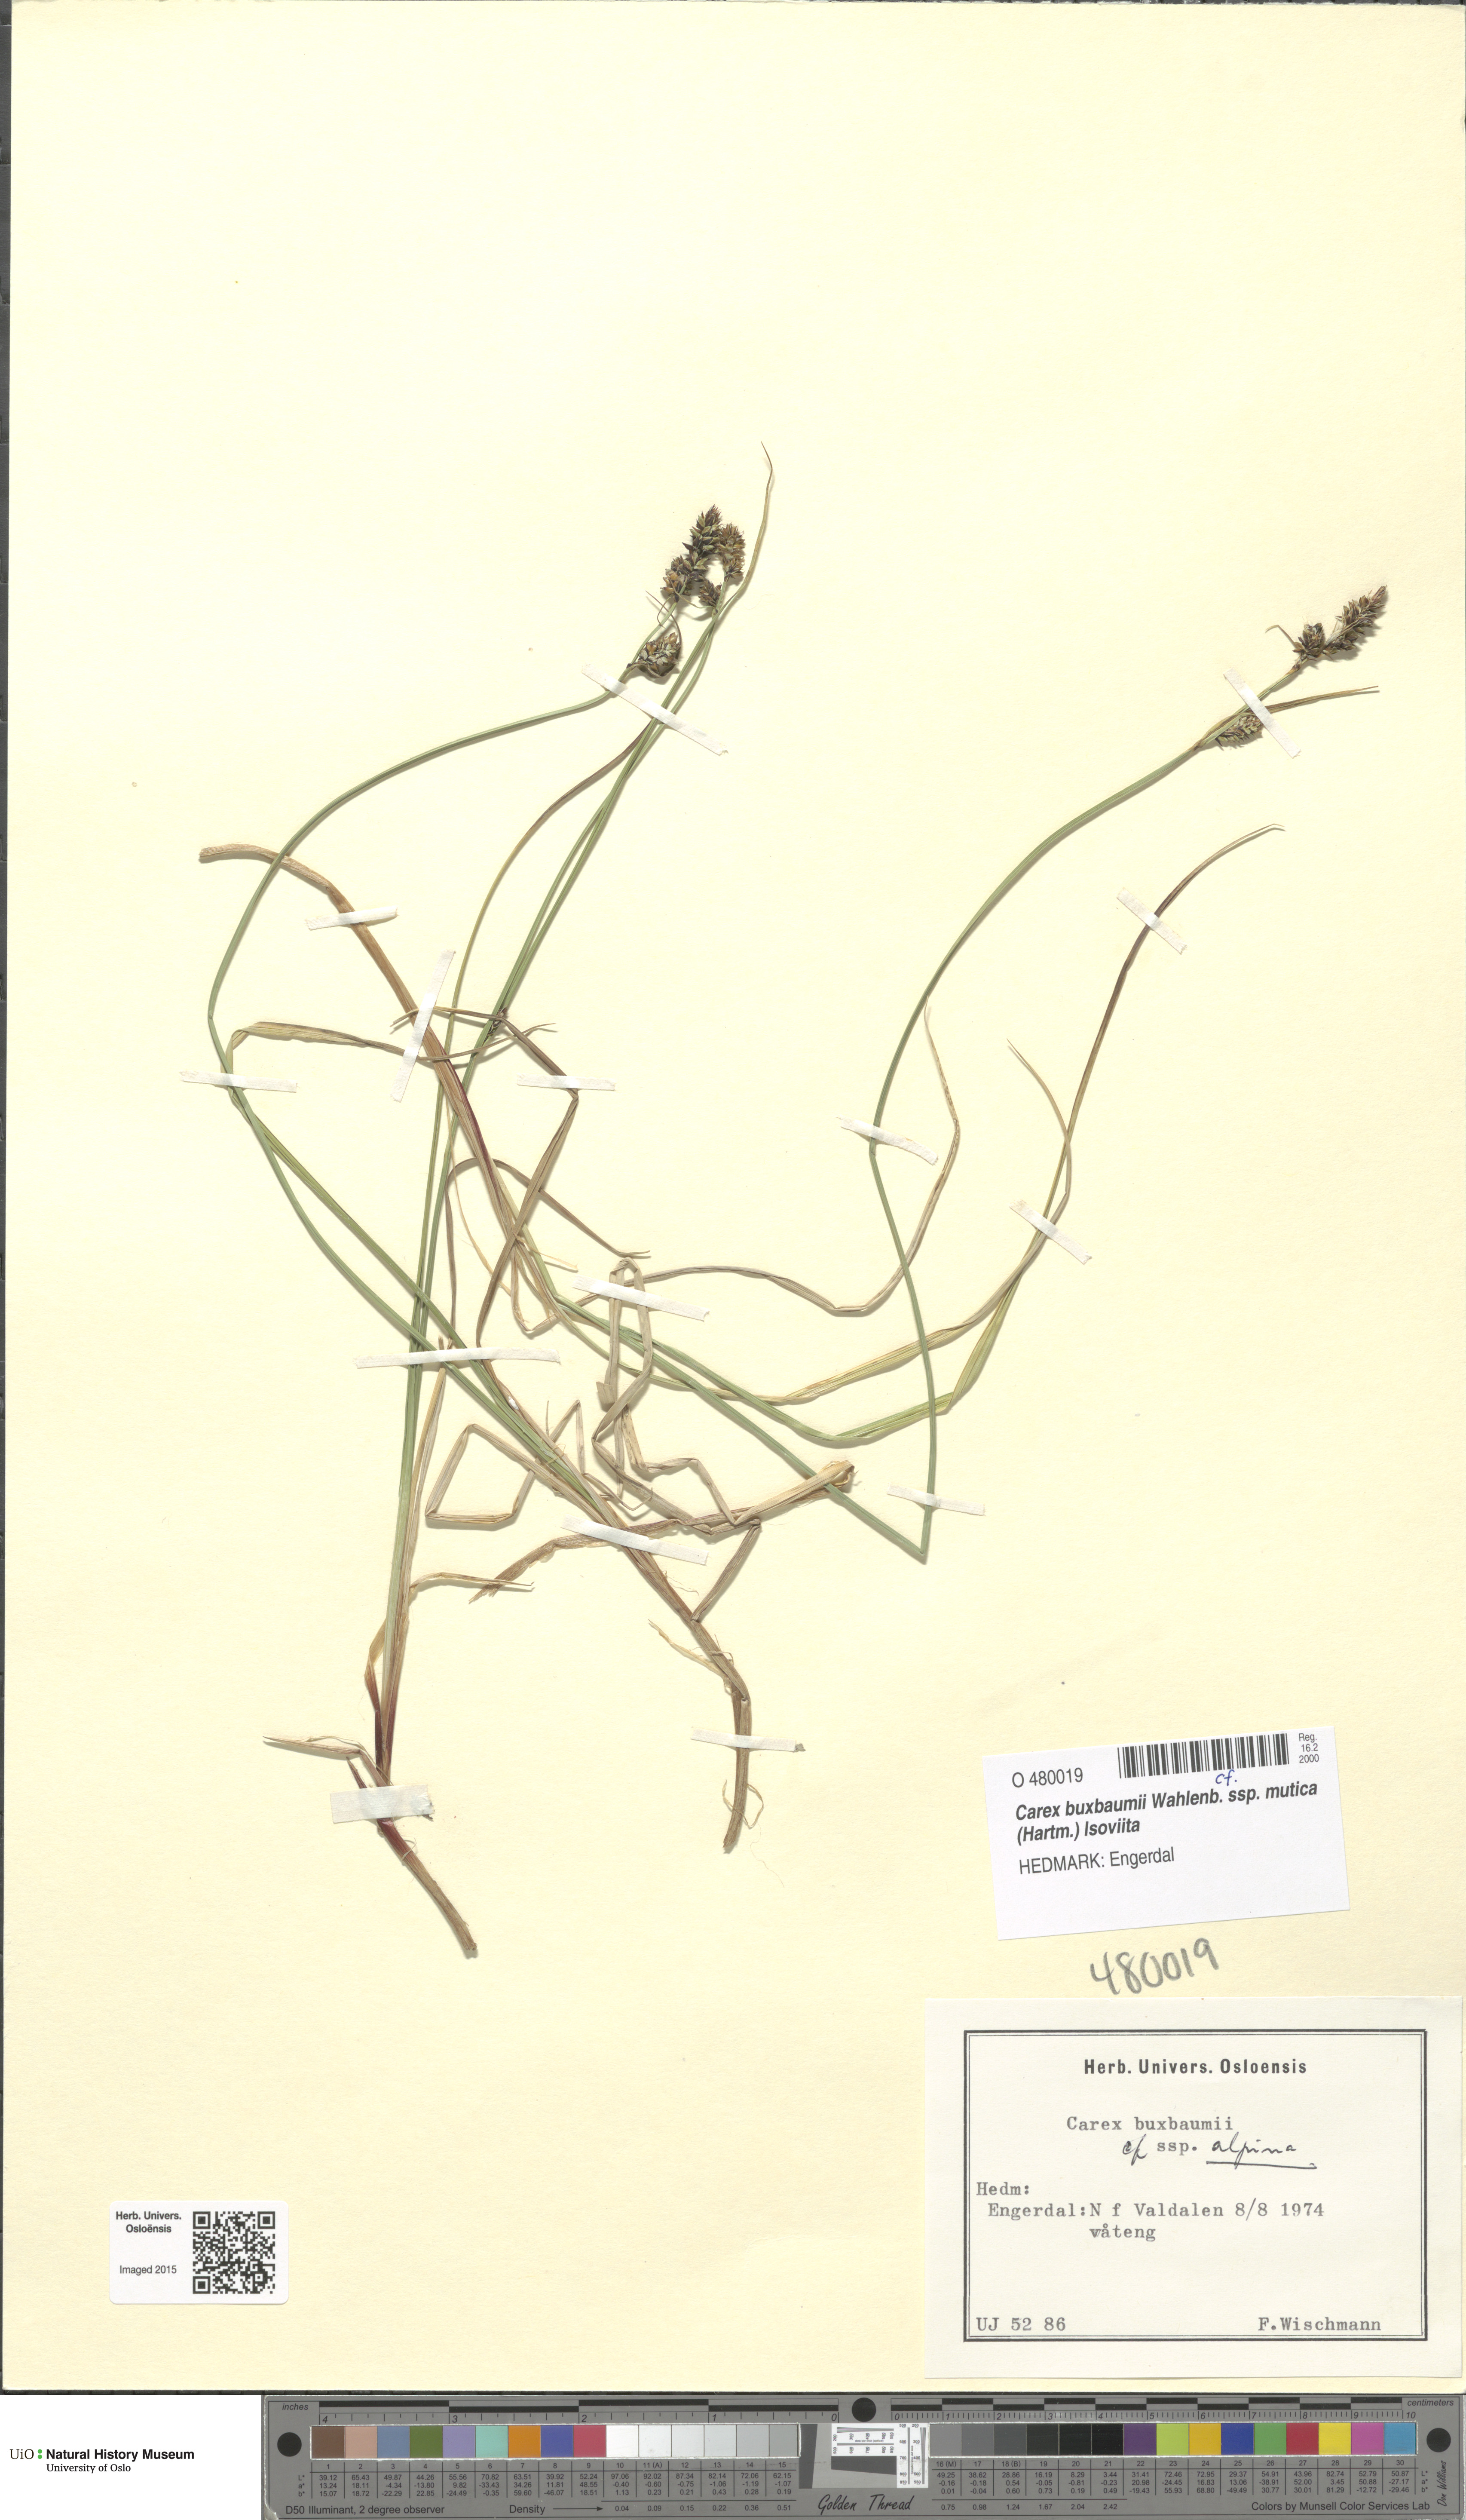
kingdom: Plantae
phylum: Tracheophyta
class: Liliopsida
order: Poales
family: Cyperaceae
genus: Carex
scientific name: Carex adelostoma
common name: Circumpolar sedge
